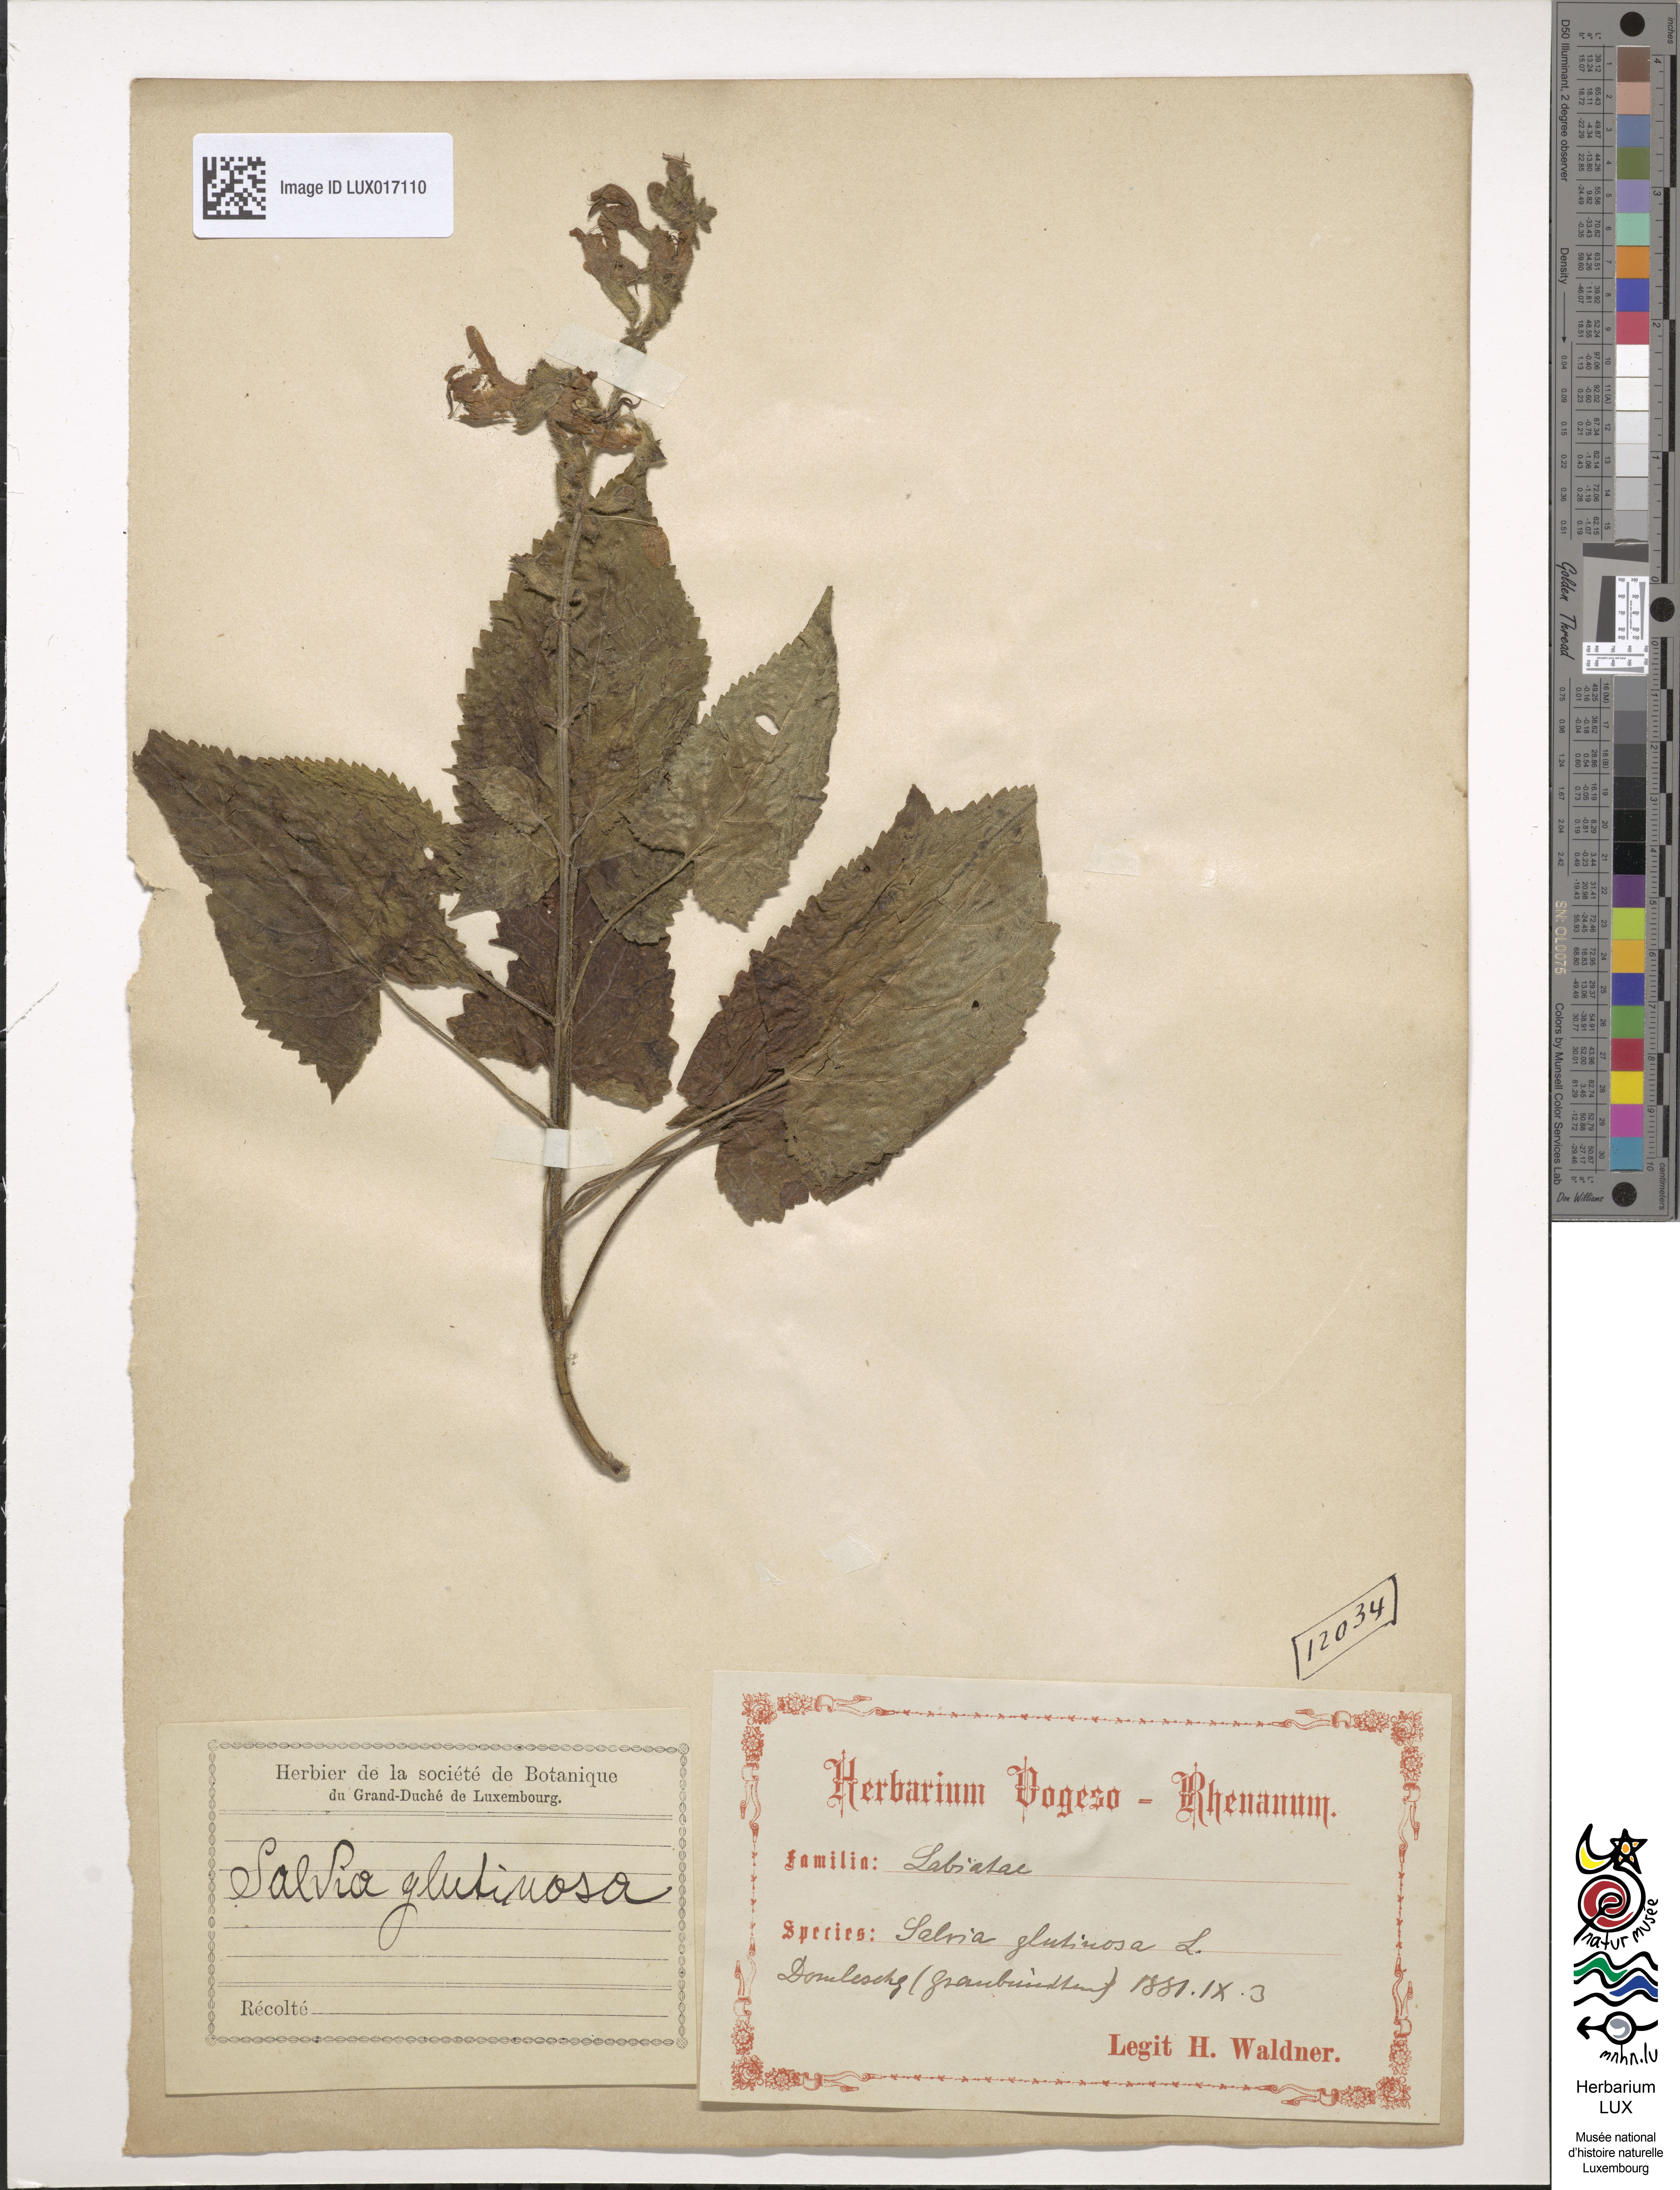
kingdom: Plantae
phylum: Tracheophyta
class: Magnoliopsida
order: Lamiales
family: Lamiaceae
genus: Salvia
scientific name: Salvia glutinosa
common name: Sticky clary
